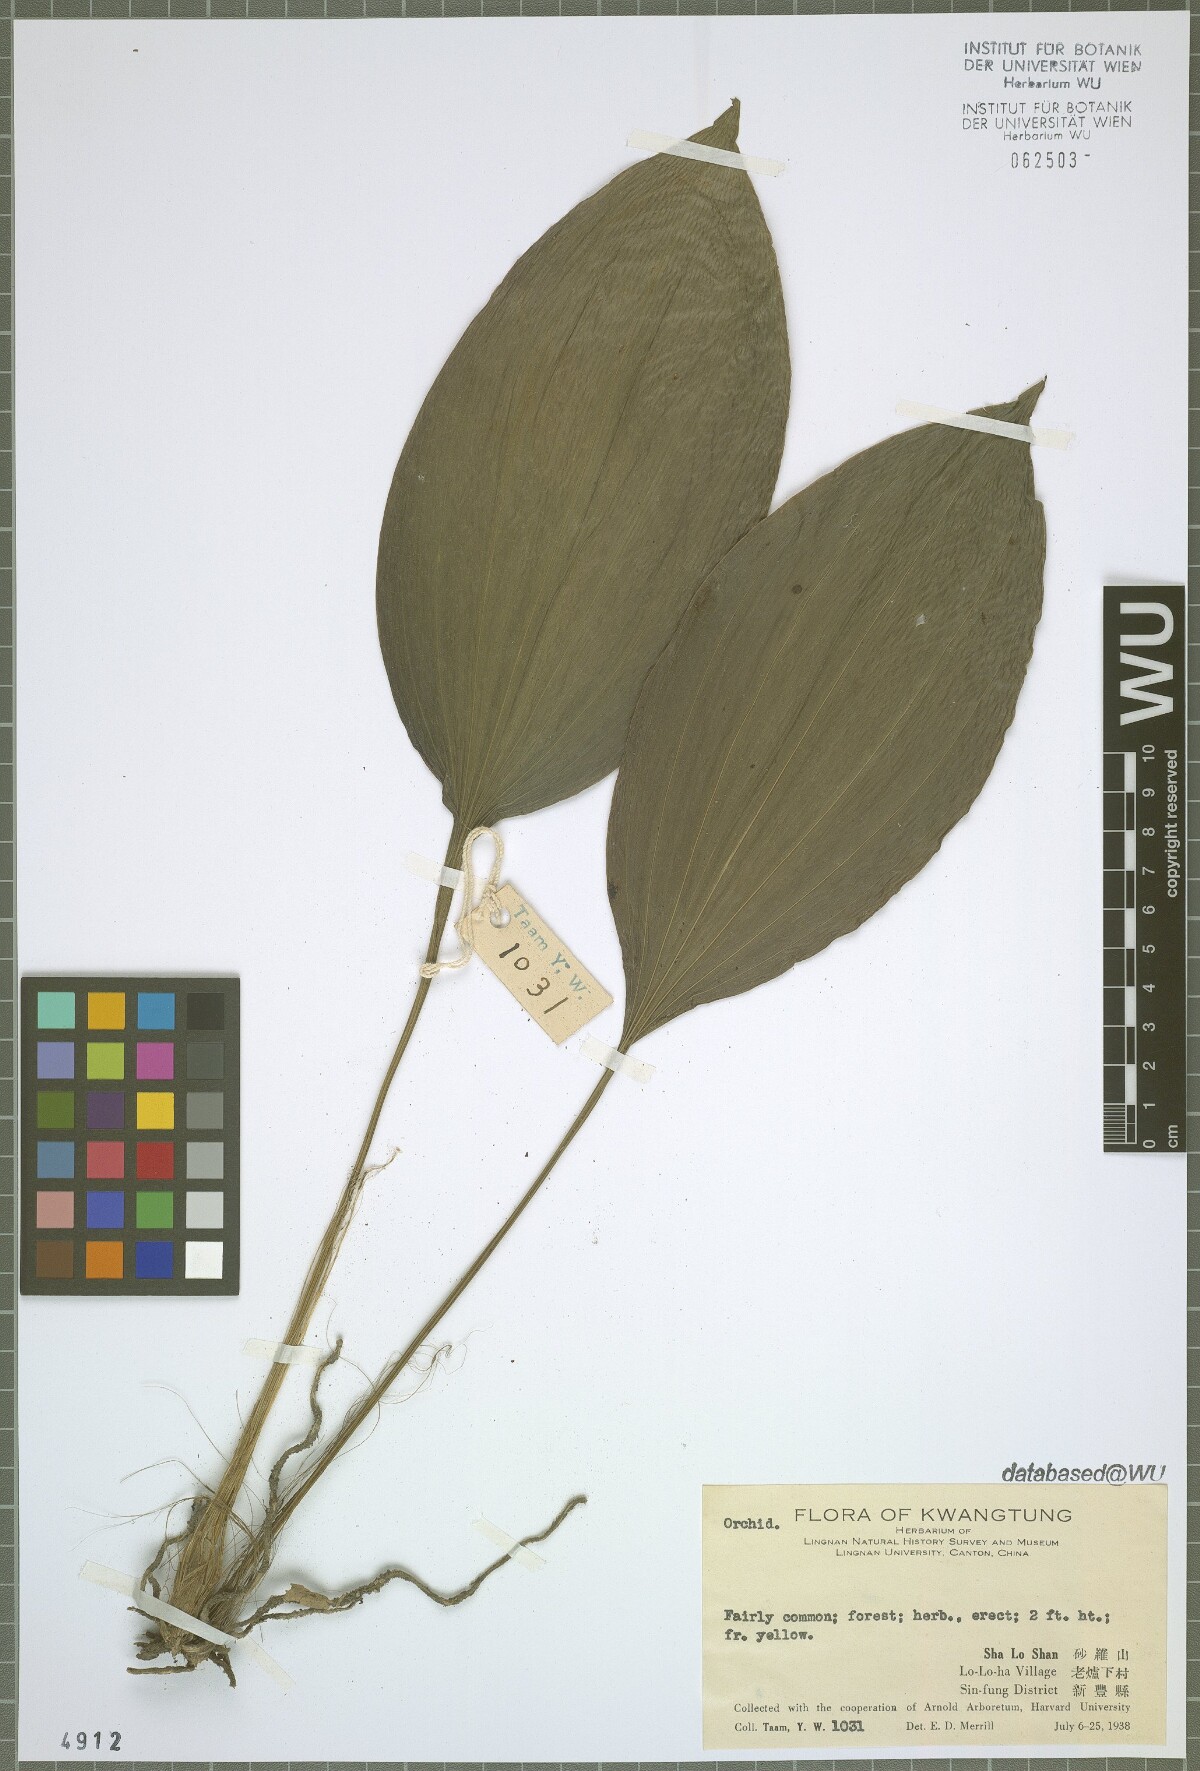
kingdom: Plantae
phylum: Tracheophyta
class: Liliopsida
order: Asparagales
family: Orchidaceae
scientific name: Orchidaceae
